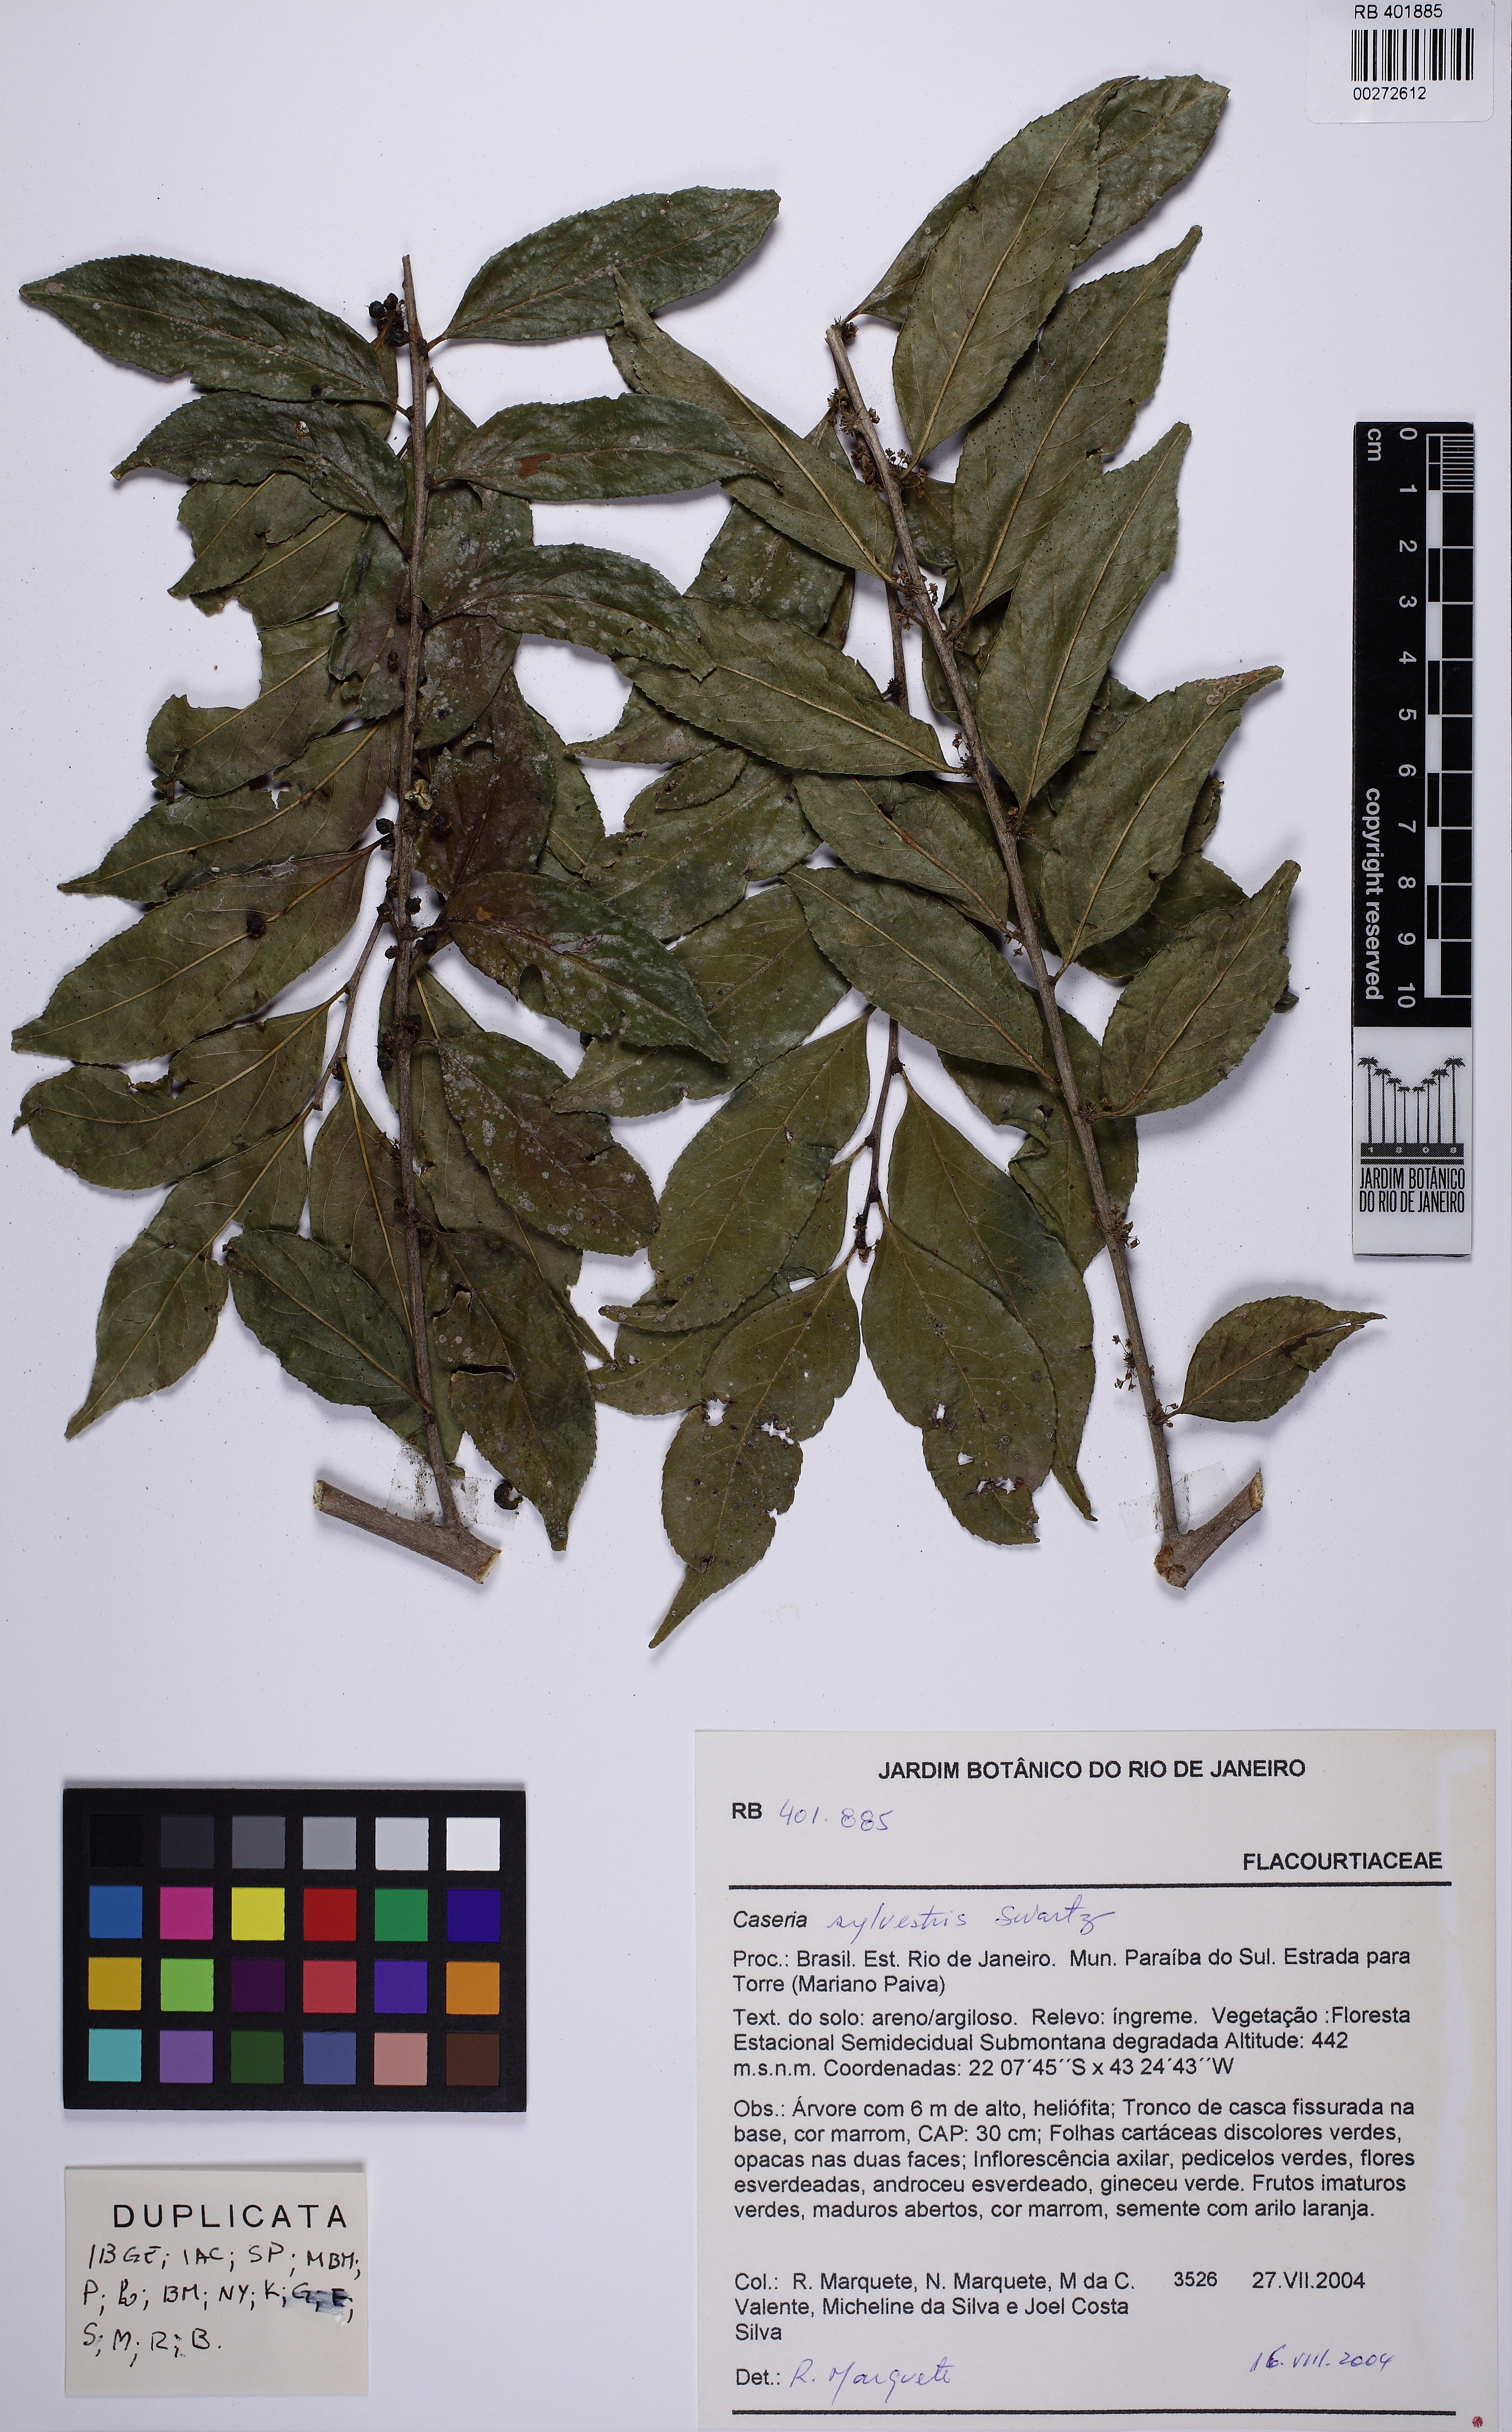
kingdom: Plantae
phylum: Tracheophyta
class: Magnoliopsida
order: Malpighiales
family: Salicaceae
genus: Casearia
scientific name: Casearia sylvestris
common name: Wild sage
